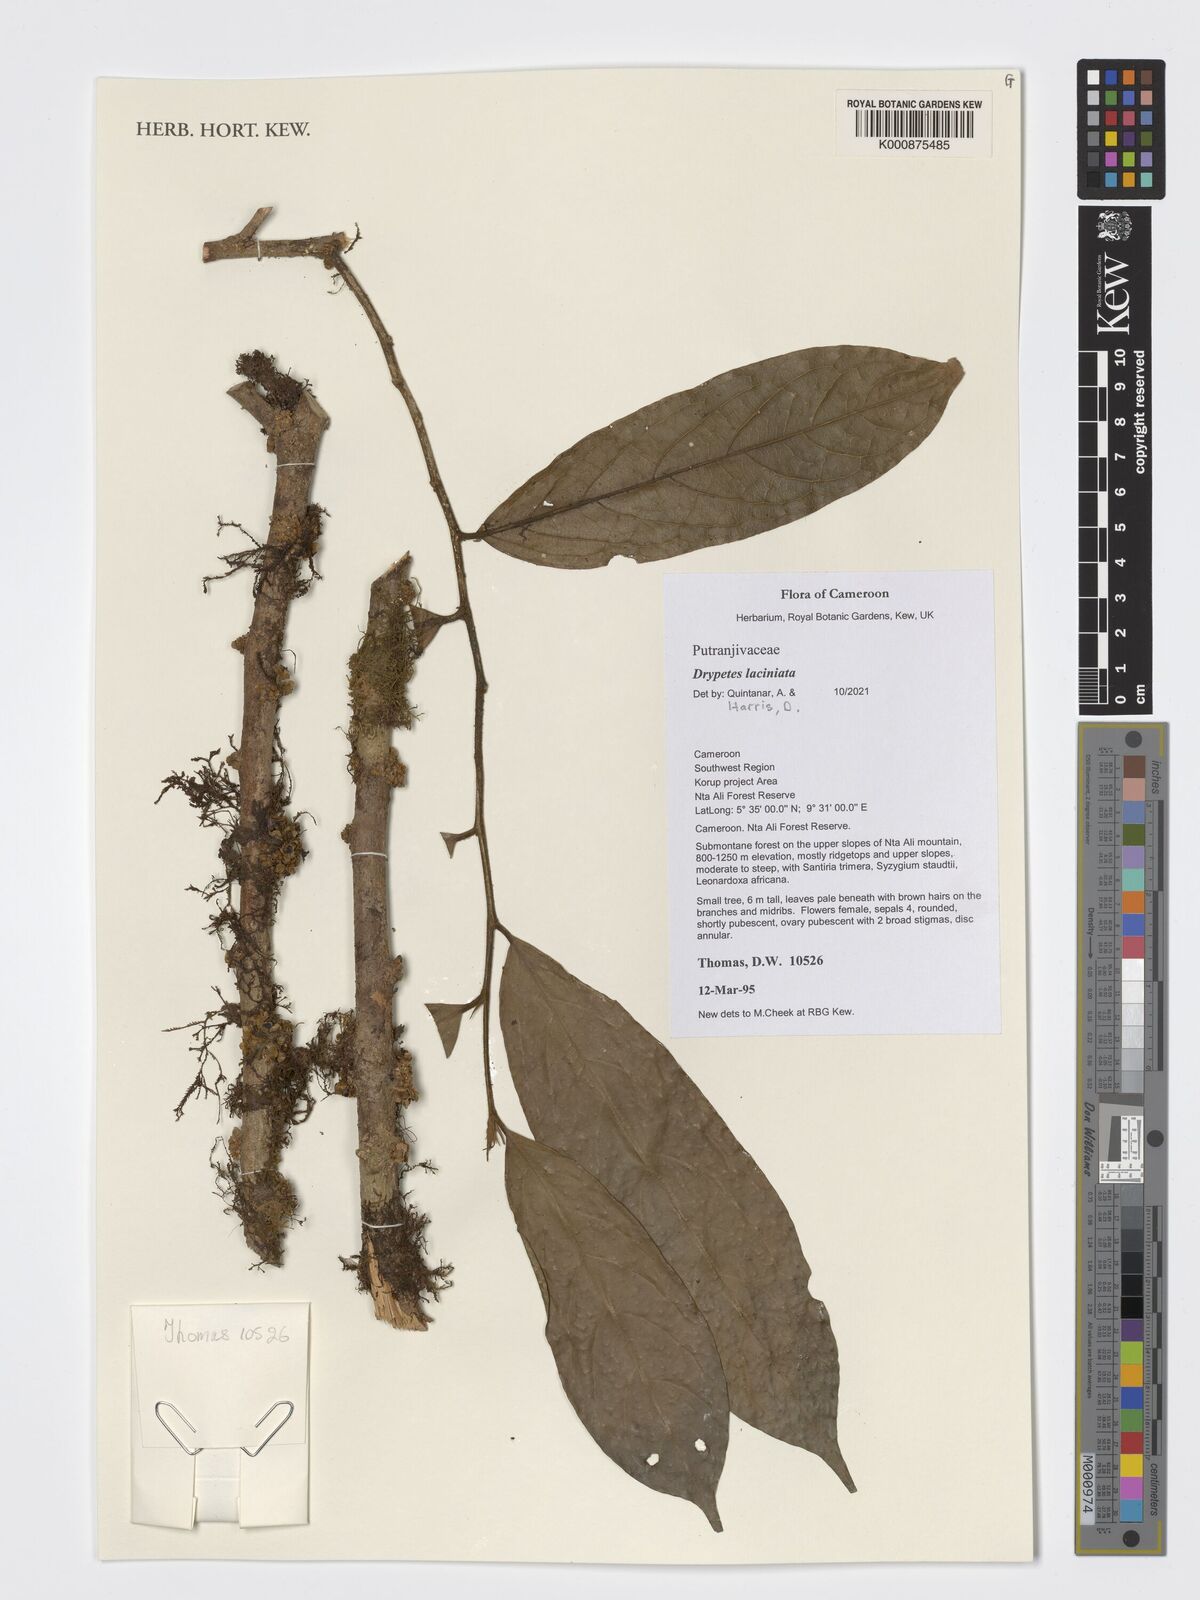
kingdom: Plantae
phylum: Tracheophyta
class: Magnoliopsida
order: Malpighiales
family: Putranjivaceae
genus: Drypetes
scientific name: Drypetes laciniata
